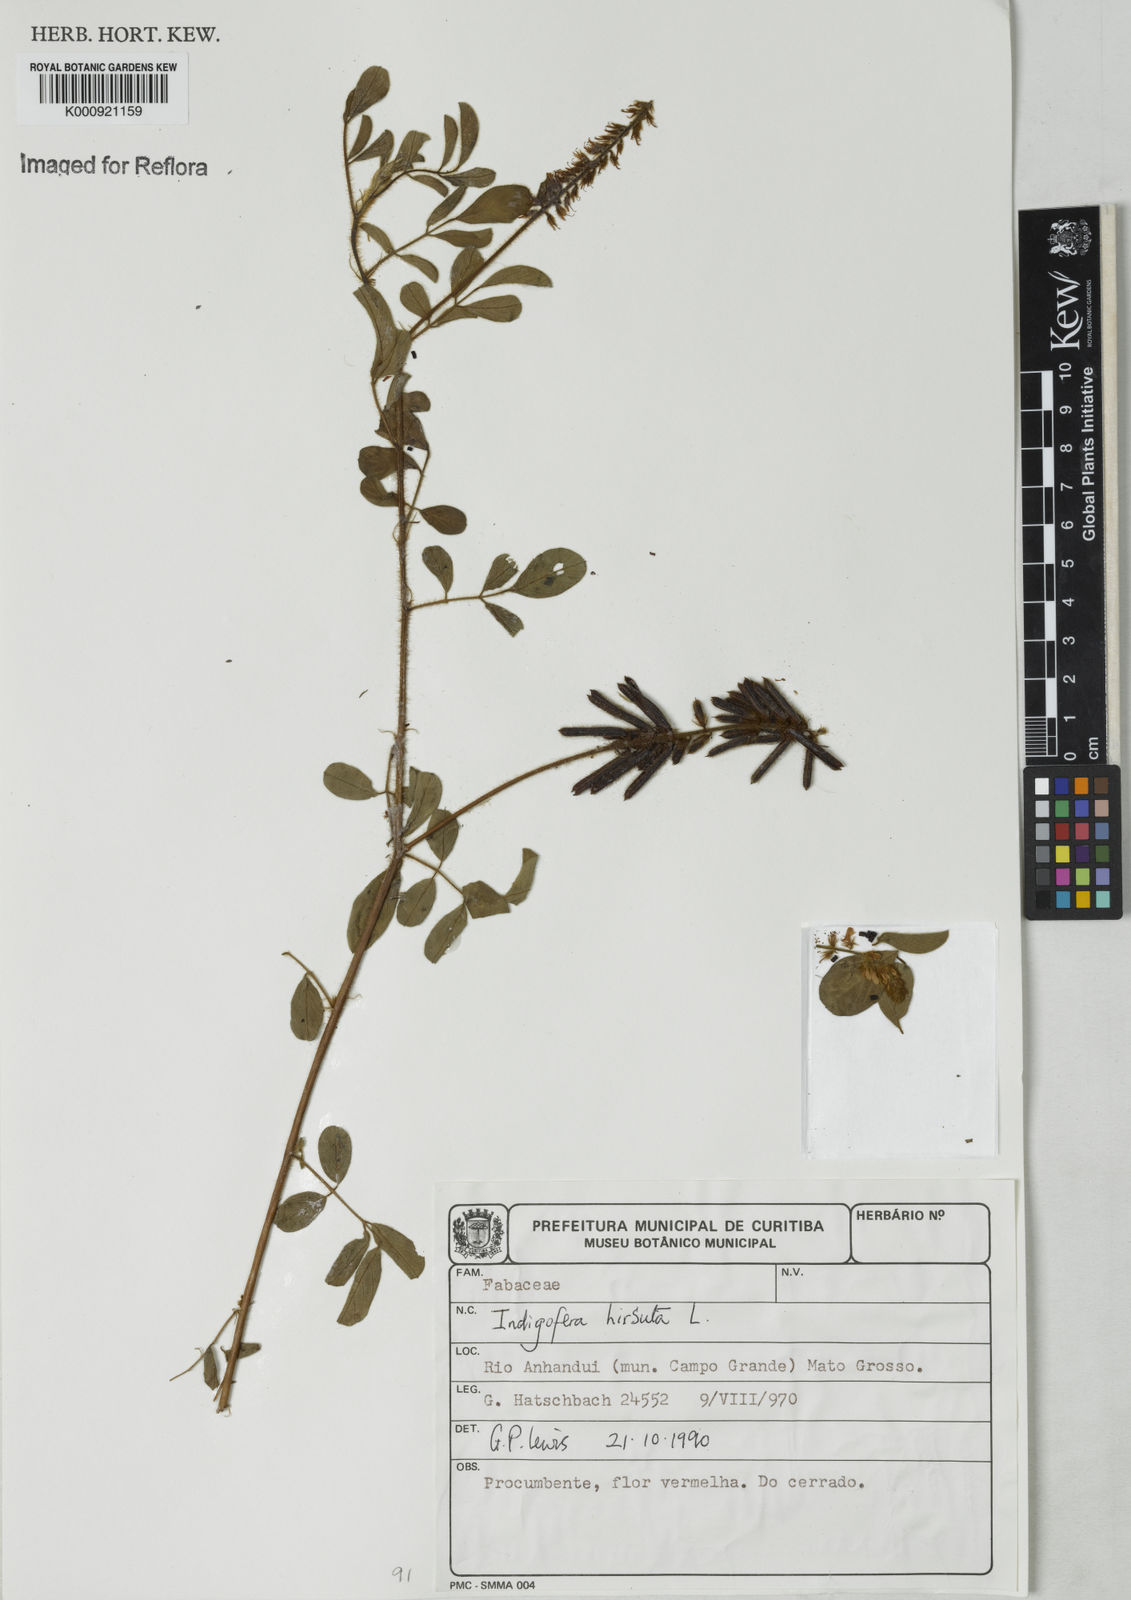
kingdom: Plantae
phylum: Tracheophyta
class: Magnoliopsida
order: Fabales
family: Fabaceae
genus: Indigofera
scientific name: Indigofera hirsuta
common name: Hairy indigo
